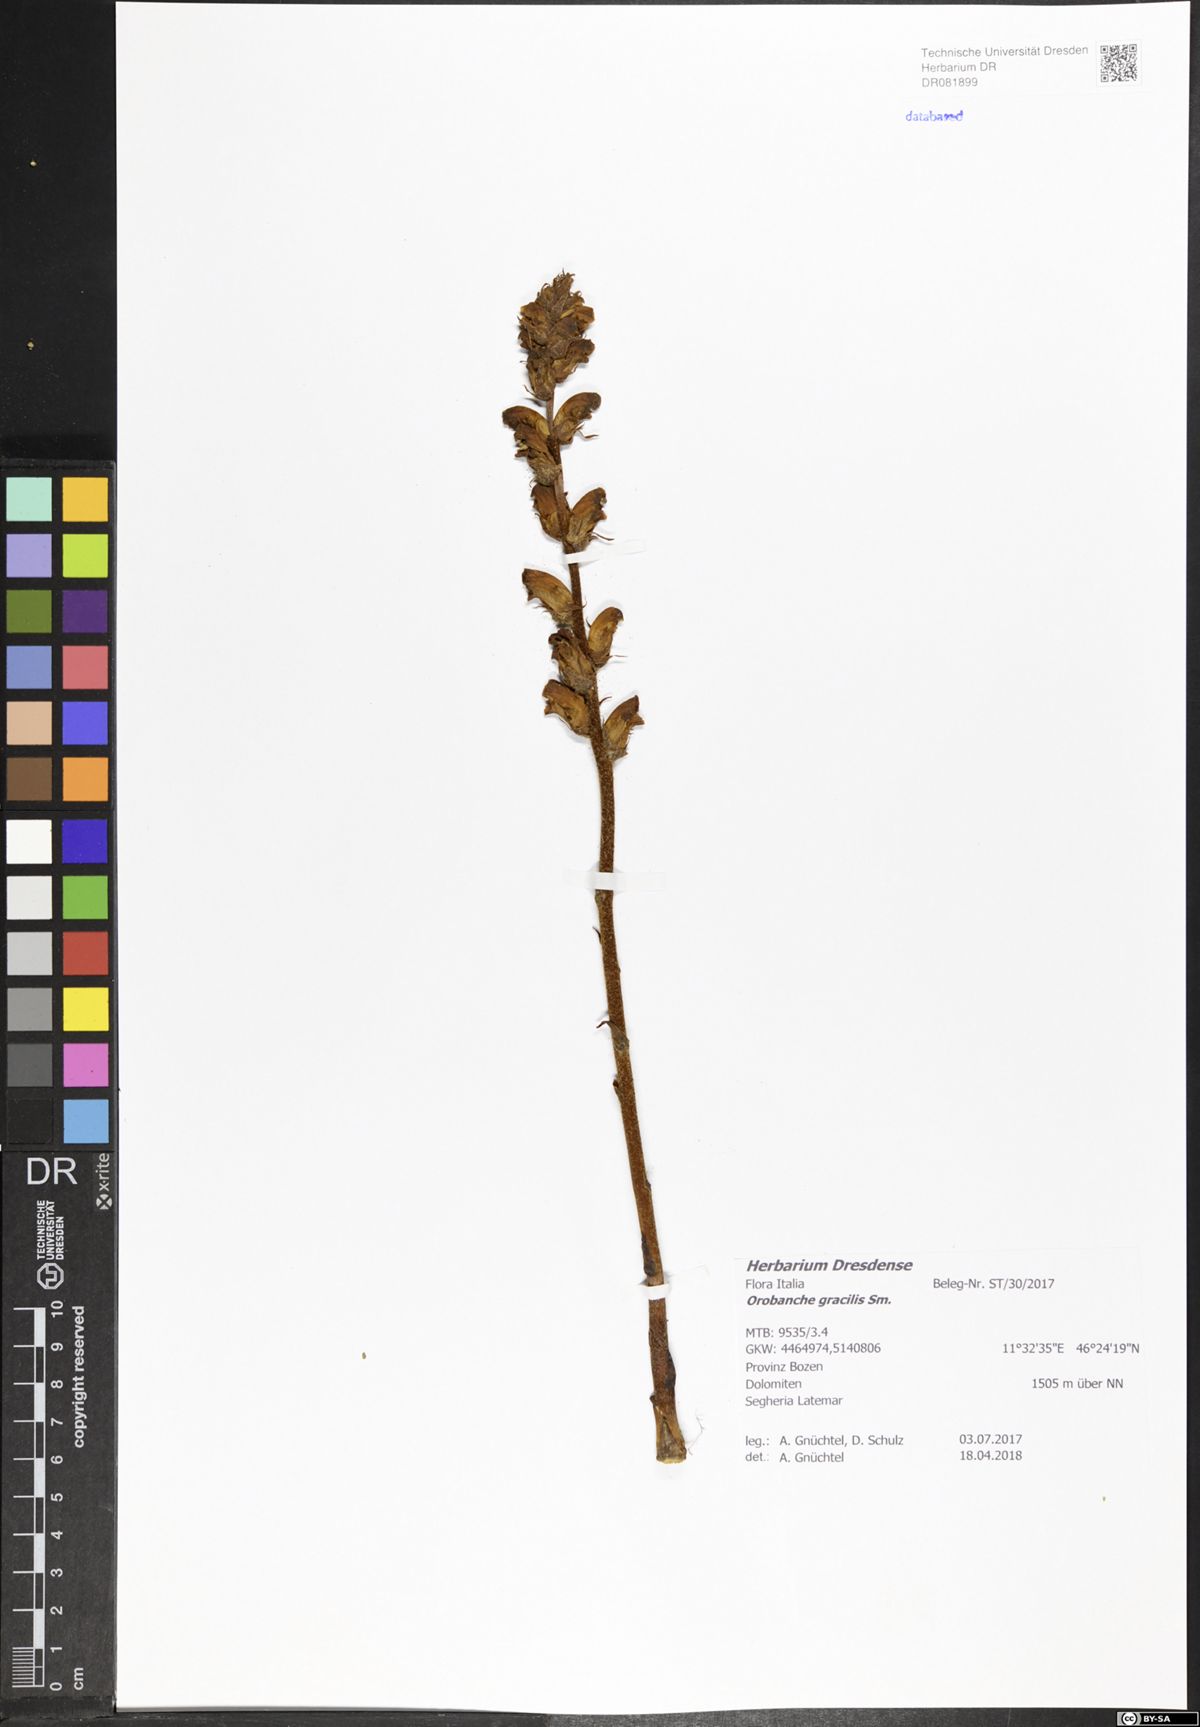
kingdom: Plantae
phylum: Tracheophyta
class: Magnoliopsida
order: Lamiales
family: Orobanchaceae
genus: Orobanche
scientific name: Orobanche gracilis
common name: Slender broomrape
